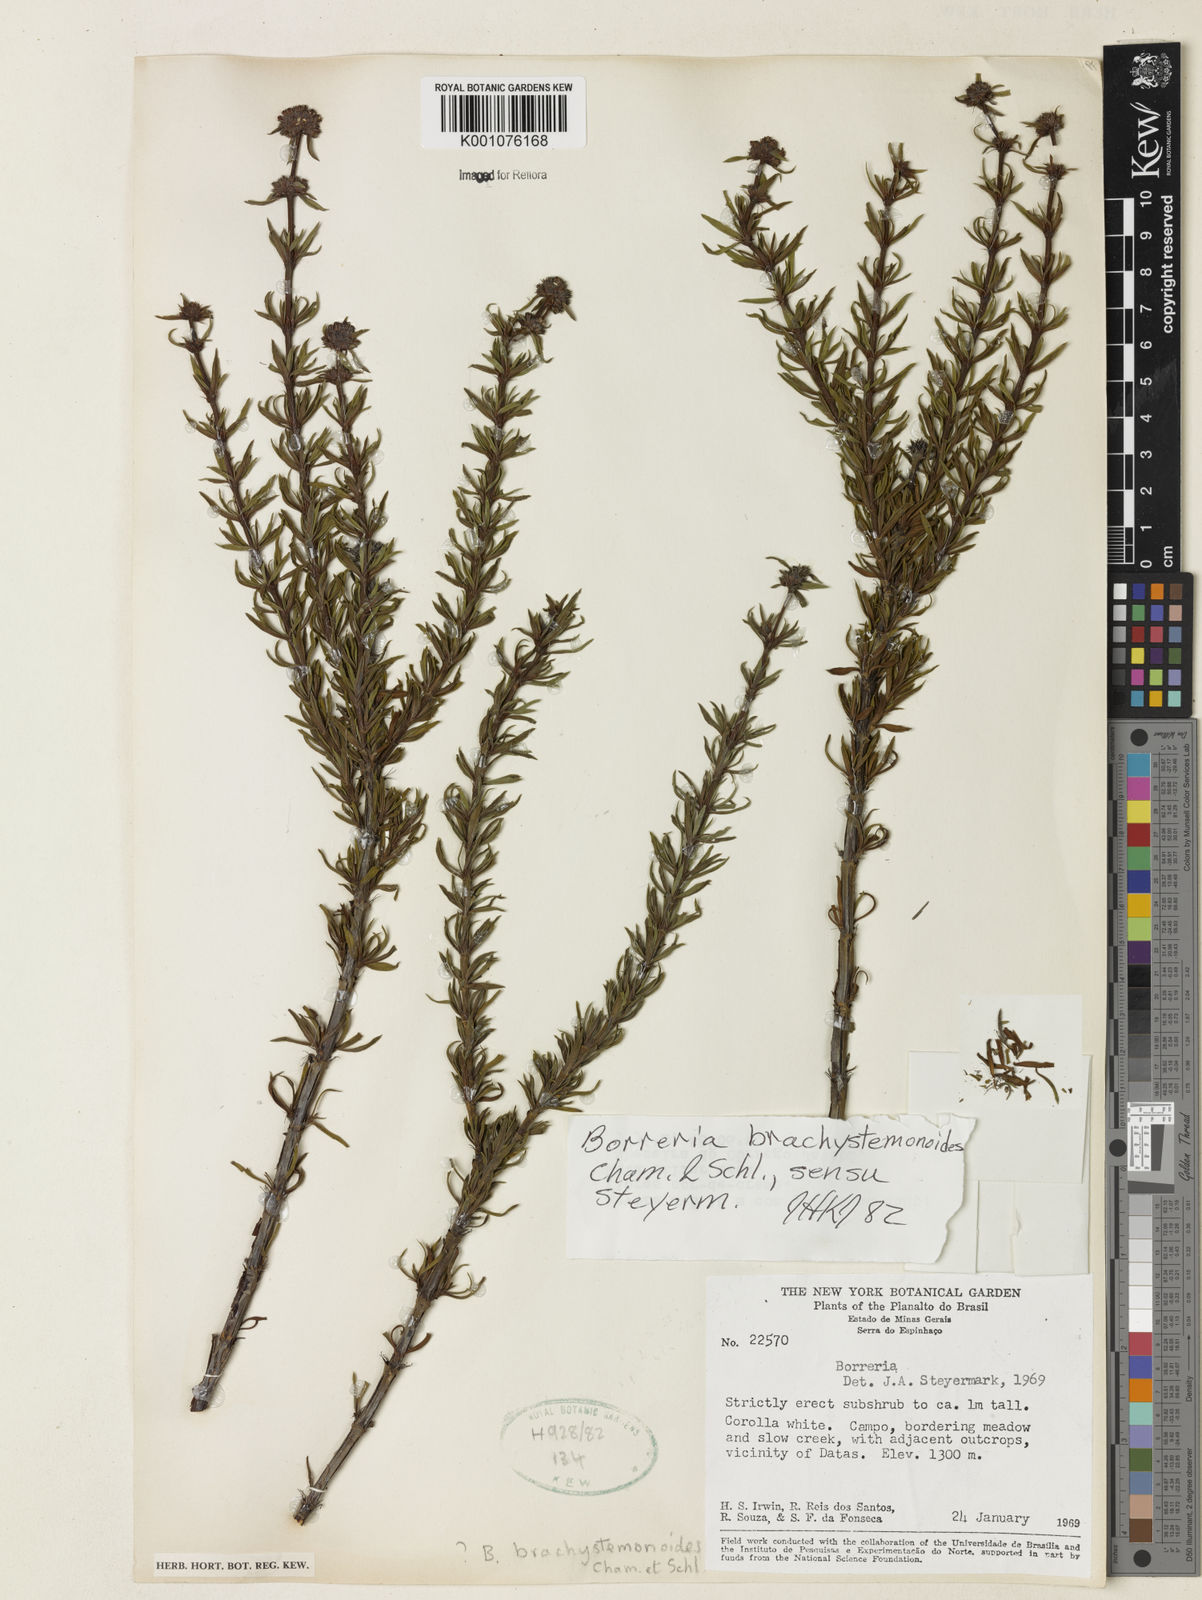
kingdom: Plantae
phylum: Tracheophyta
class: Magnoliopsida
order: Gentianales
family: Rubiaceae
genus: Spermacoce
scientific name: Spermacoce brachystemonoides
